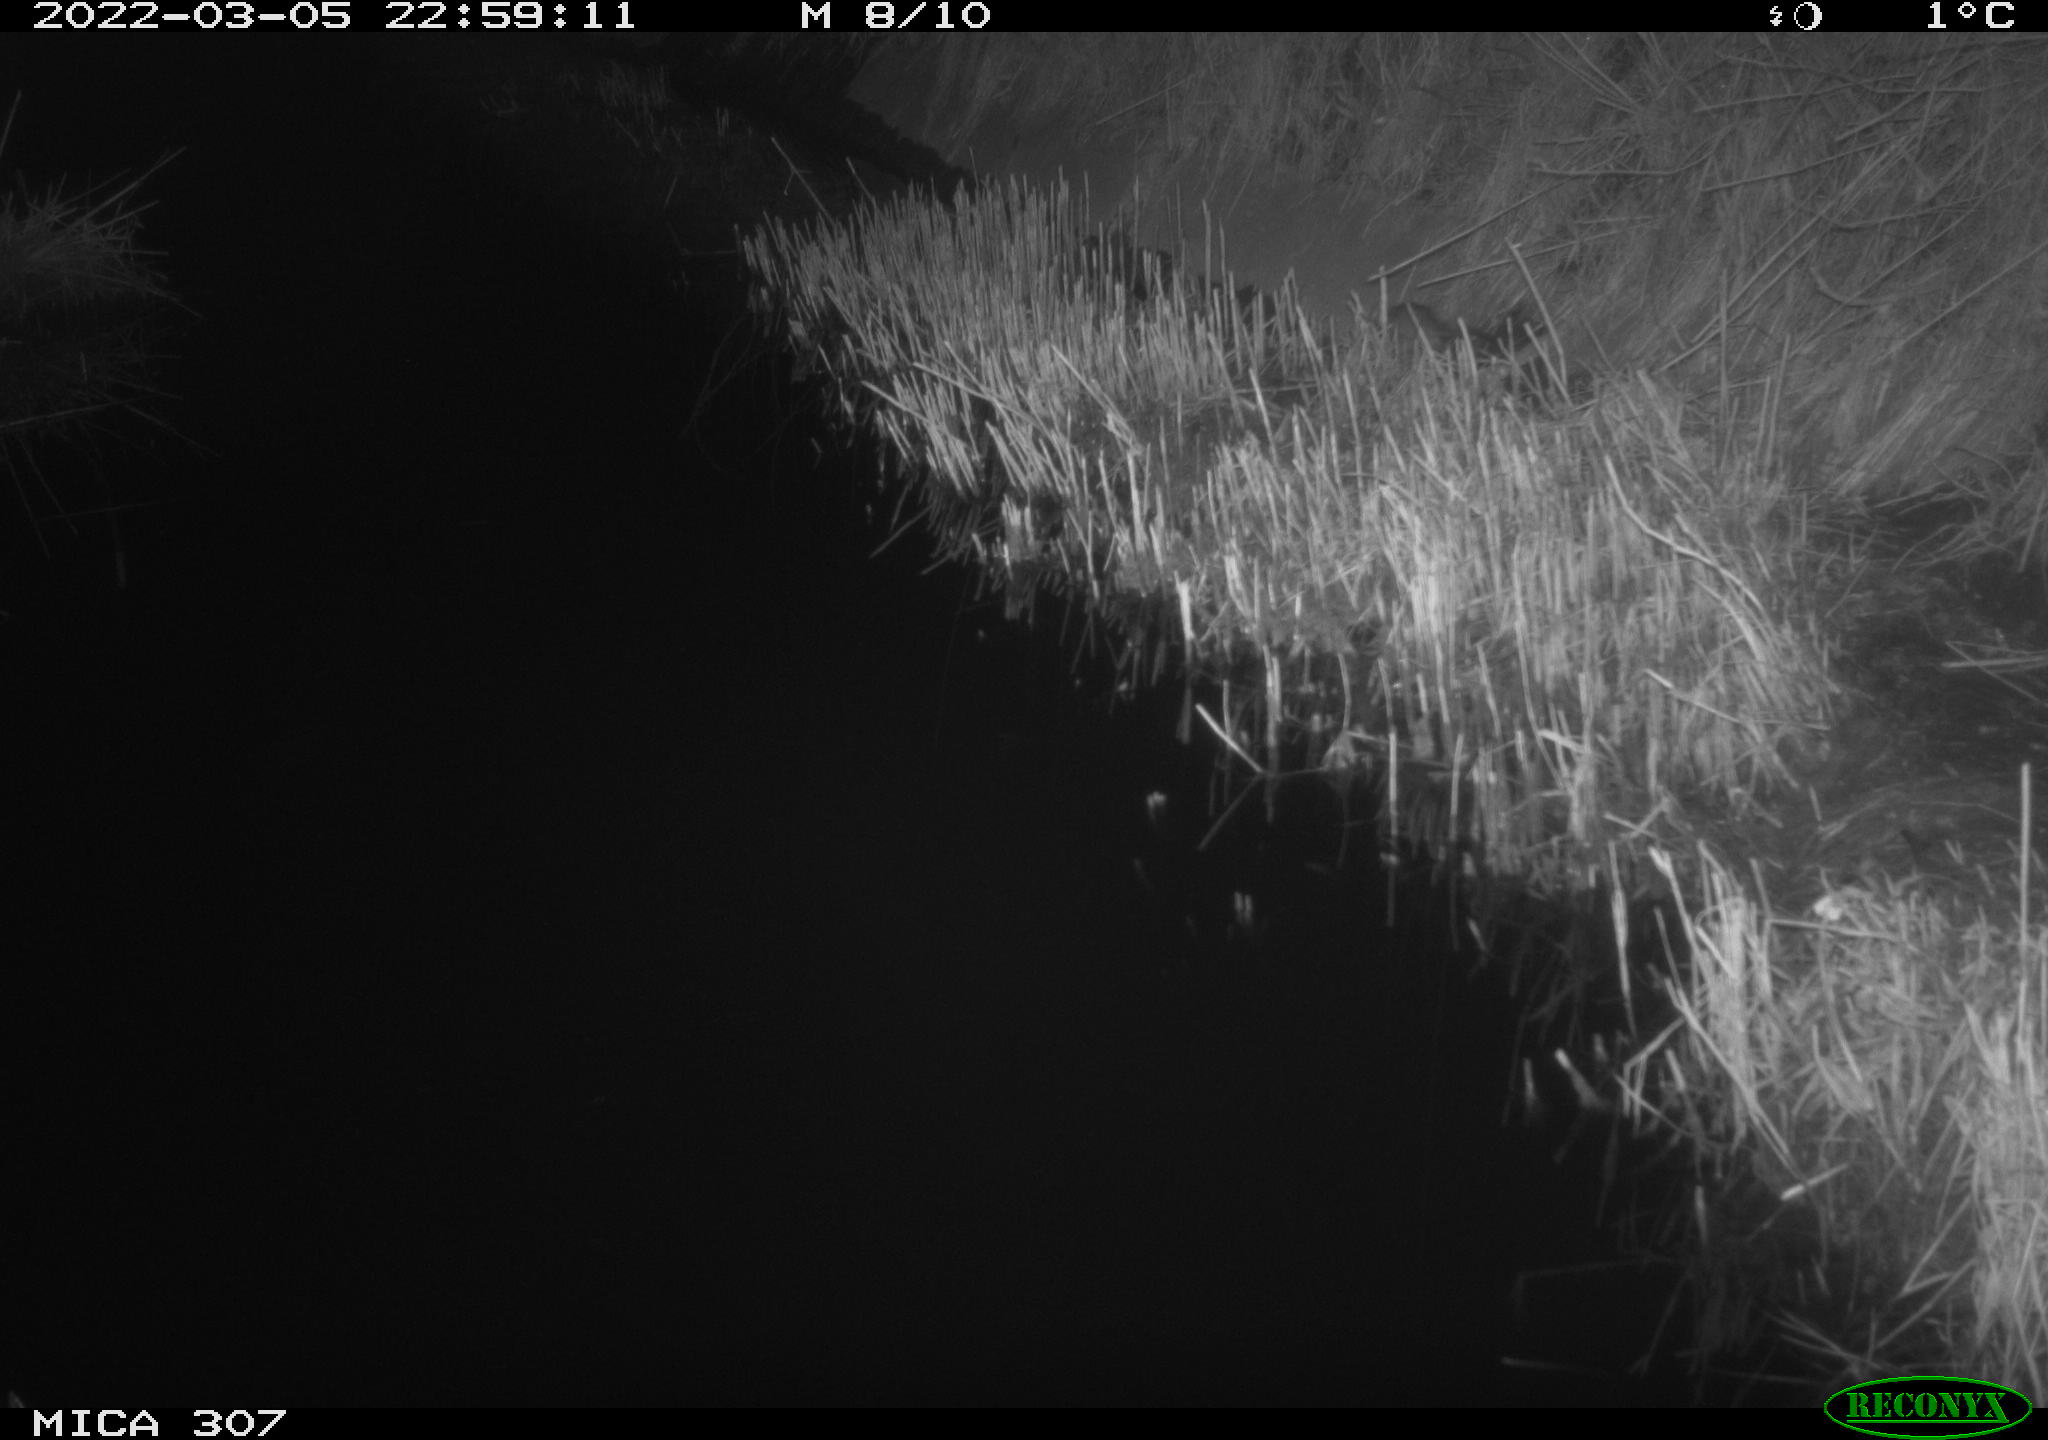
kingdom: Animalia
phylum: Chordata
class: Mammalia
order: Rodentia
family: Muridae
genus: Rattus
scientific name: Rattus norvegicus
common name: Brown rat
